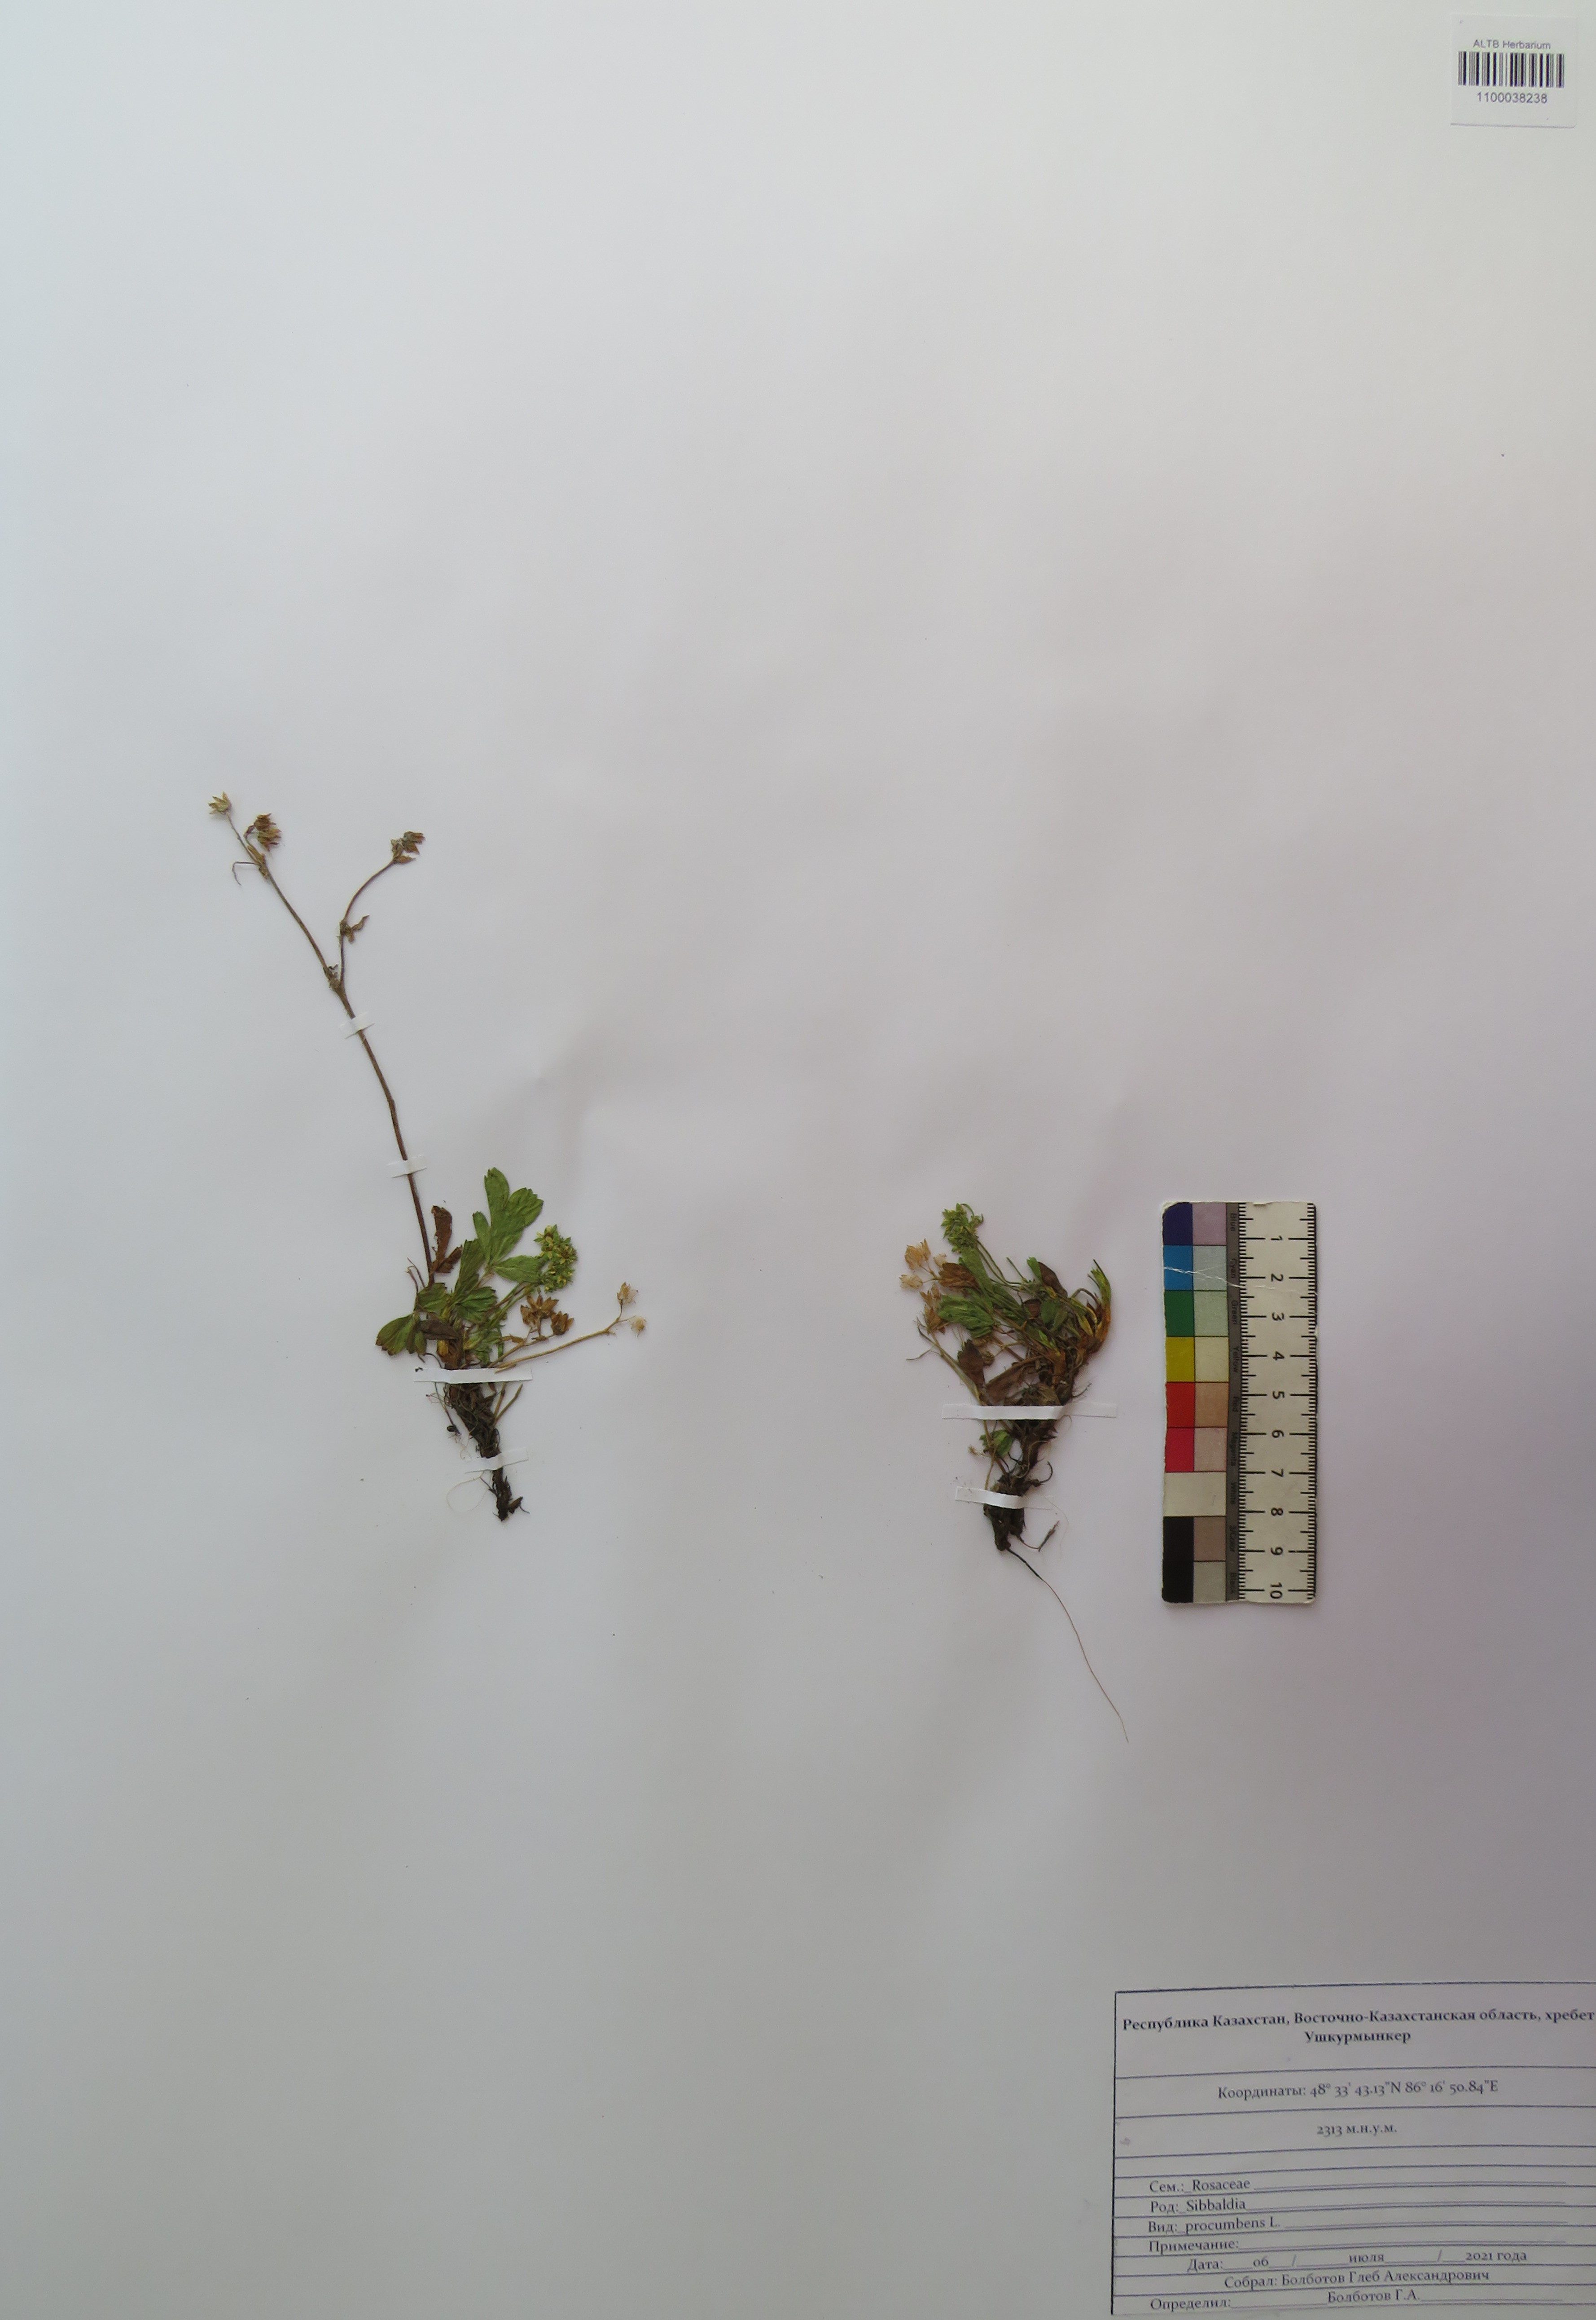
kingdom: Plantae
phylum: Tracheophyta
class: Magnoliopsida
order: Rosales
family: Rosaceae
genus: Sibbaldia
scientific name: Sibbaldia procumbens
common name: Creeping sibbaldia
